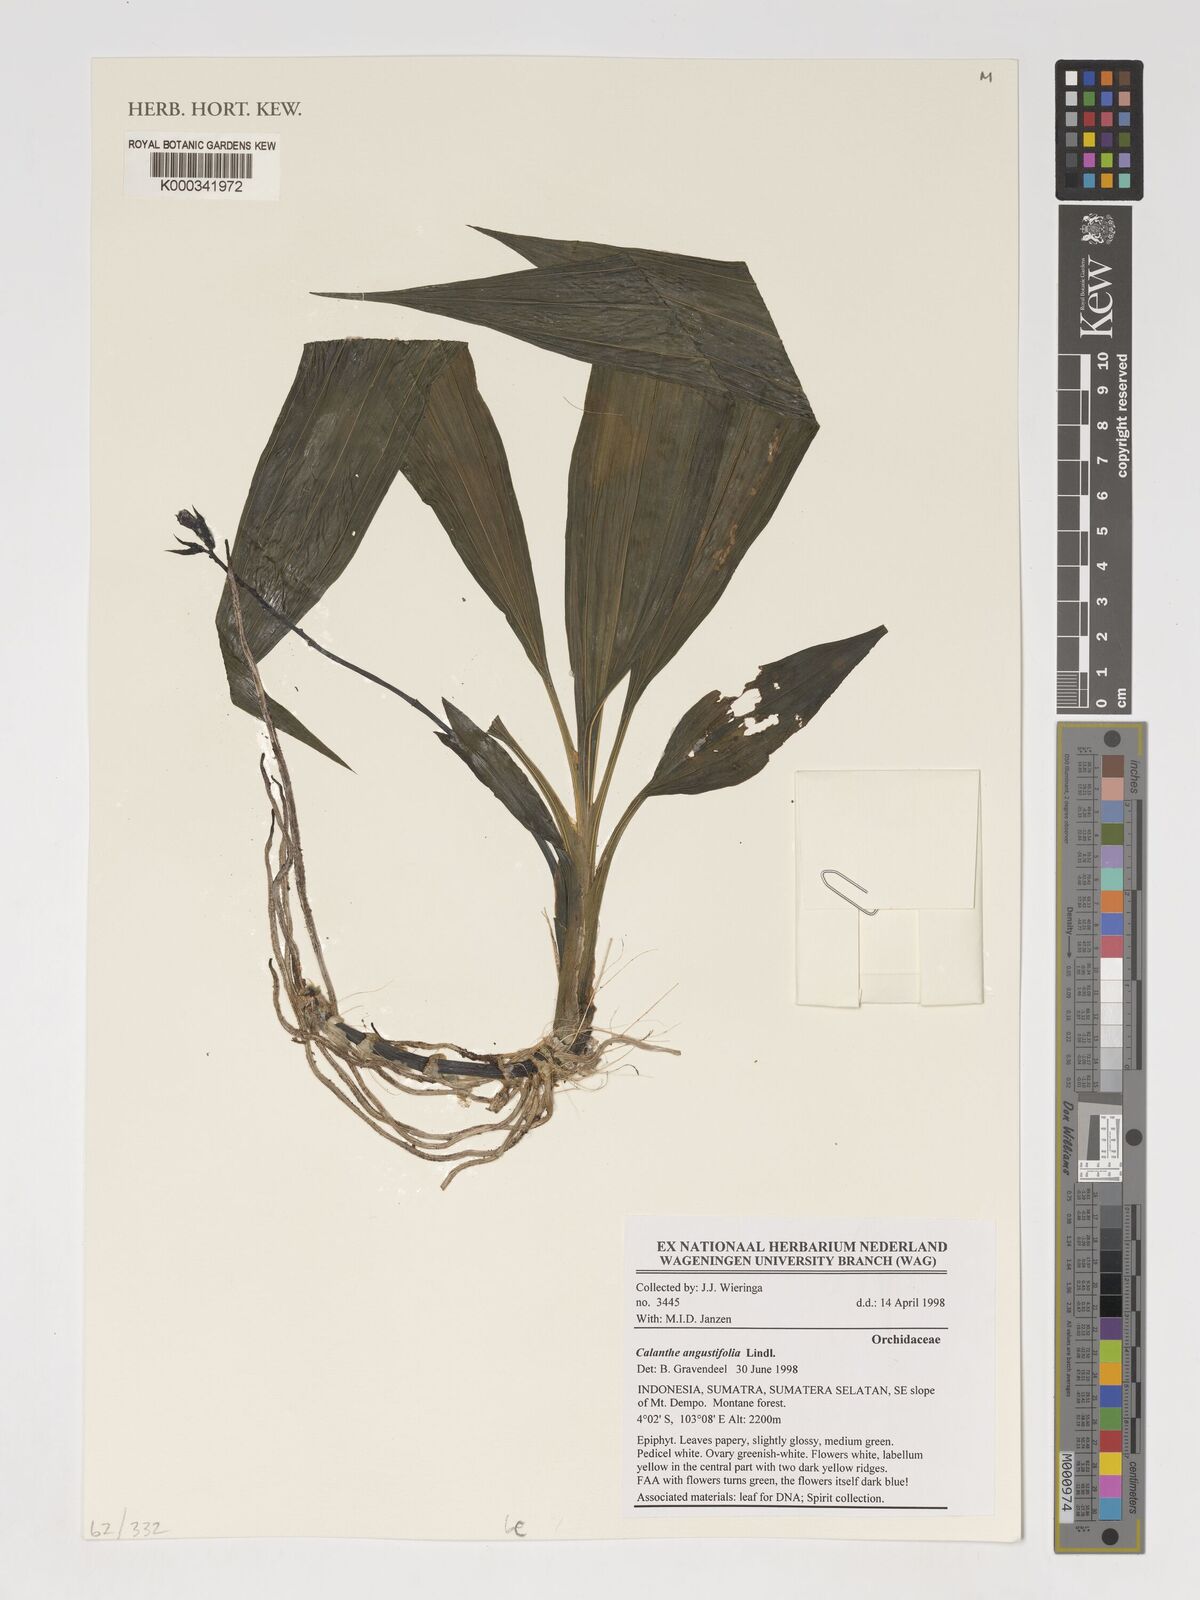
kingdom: Plantae
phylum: Tracheophyta
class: Liliopsida
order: Asparagales
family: Orchidaceae
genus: Calanthe
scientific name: Calanthe angustifolia
